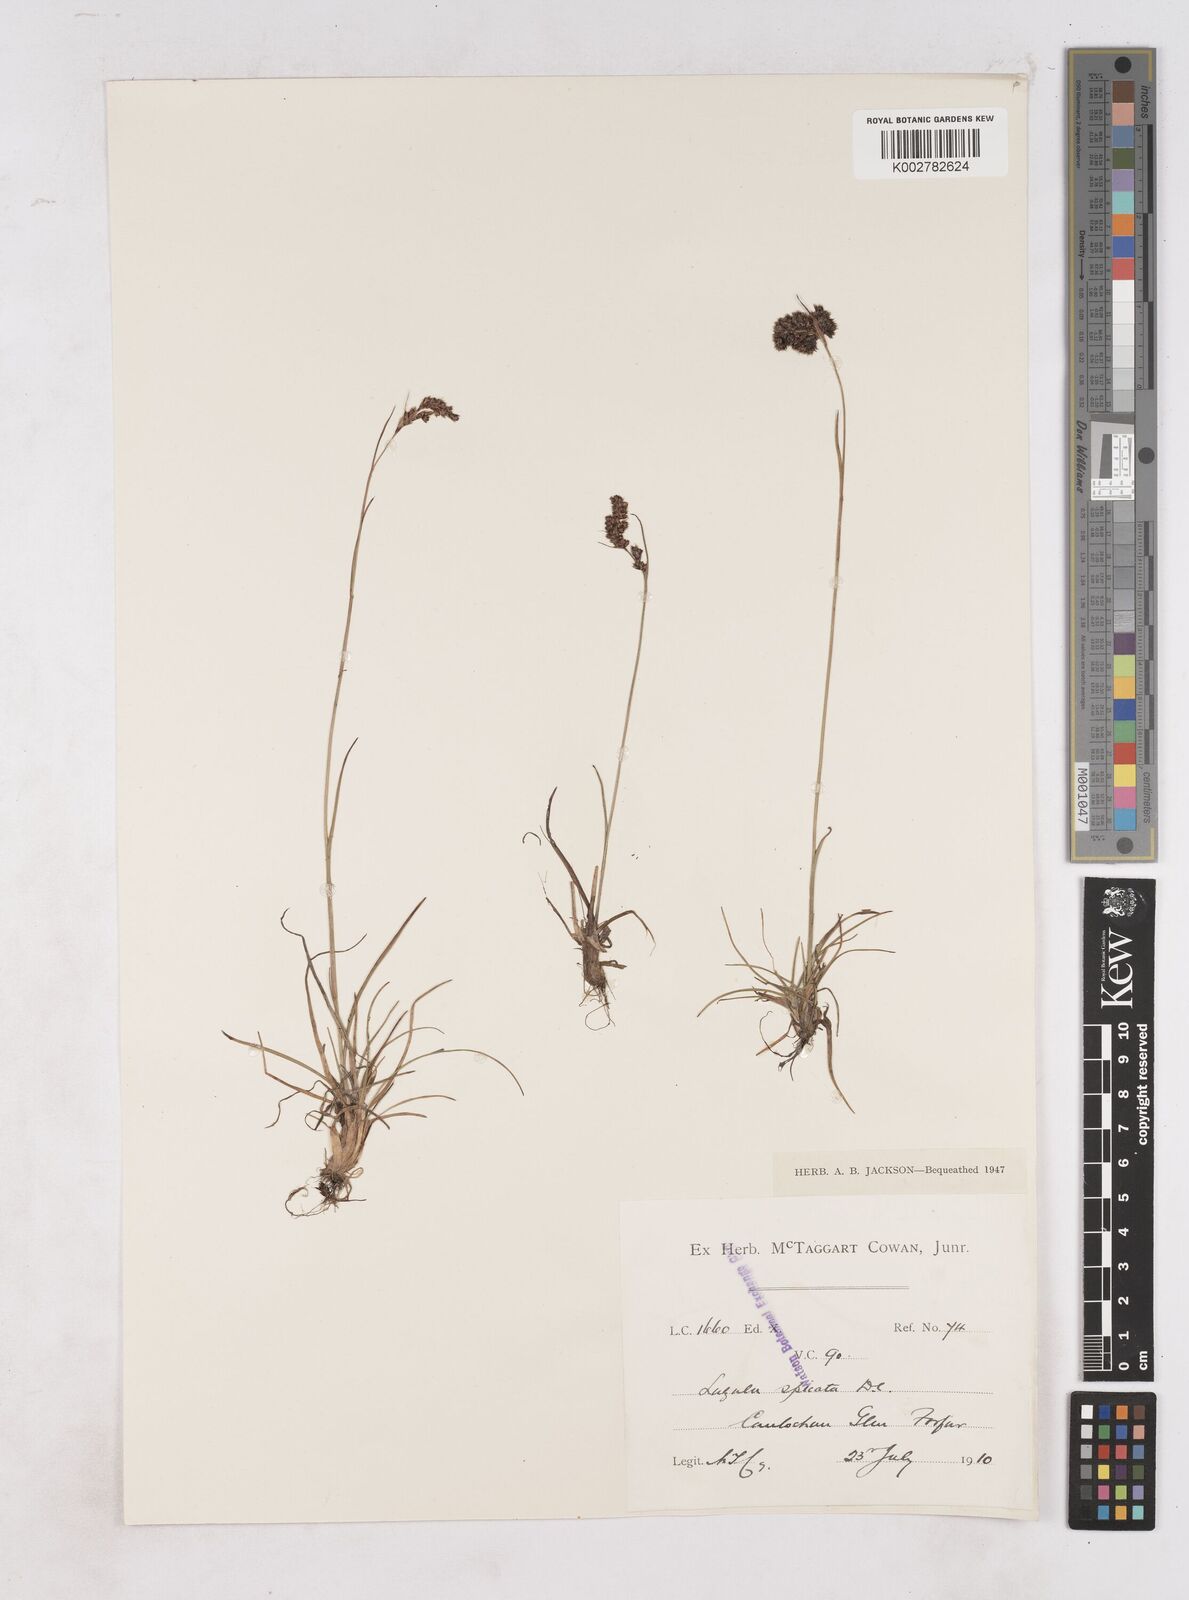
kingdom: Plantae
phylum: Tracheophyta
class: Liliopsida
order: Poales
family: Juncaceae
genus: Luzula
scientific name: Luzula spicata
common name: Spiked wood-rush
